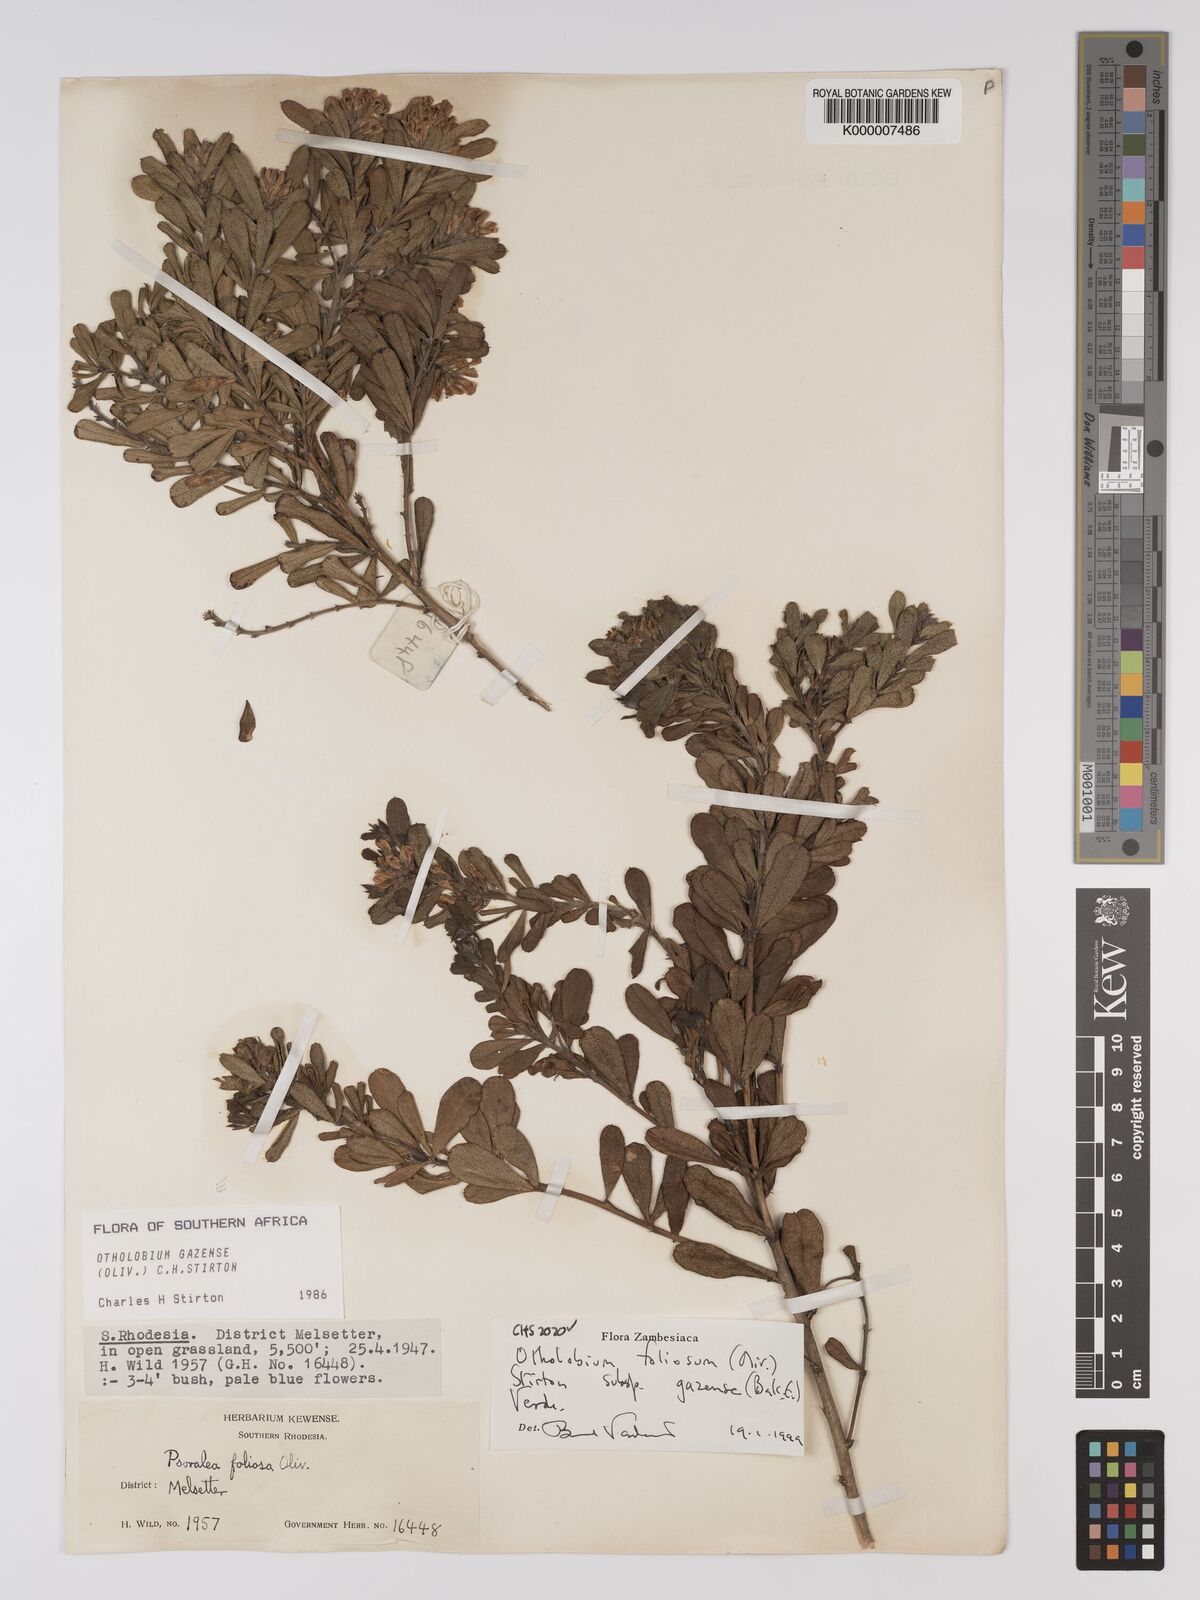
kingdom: Plantae
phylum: Tracheophyta
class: Magnoliopsida
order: Fabales
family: Fabaceae
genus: Psoralea
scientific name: Psoralea foliosa
